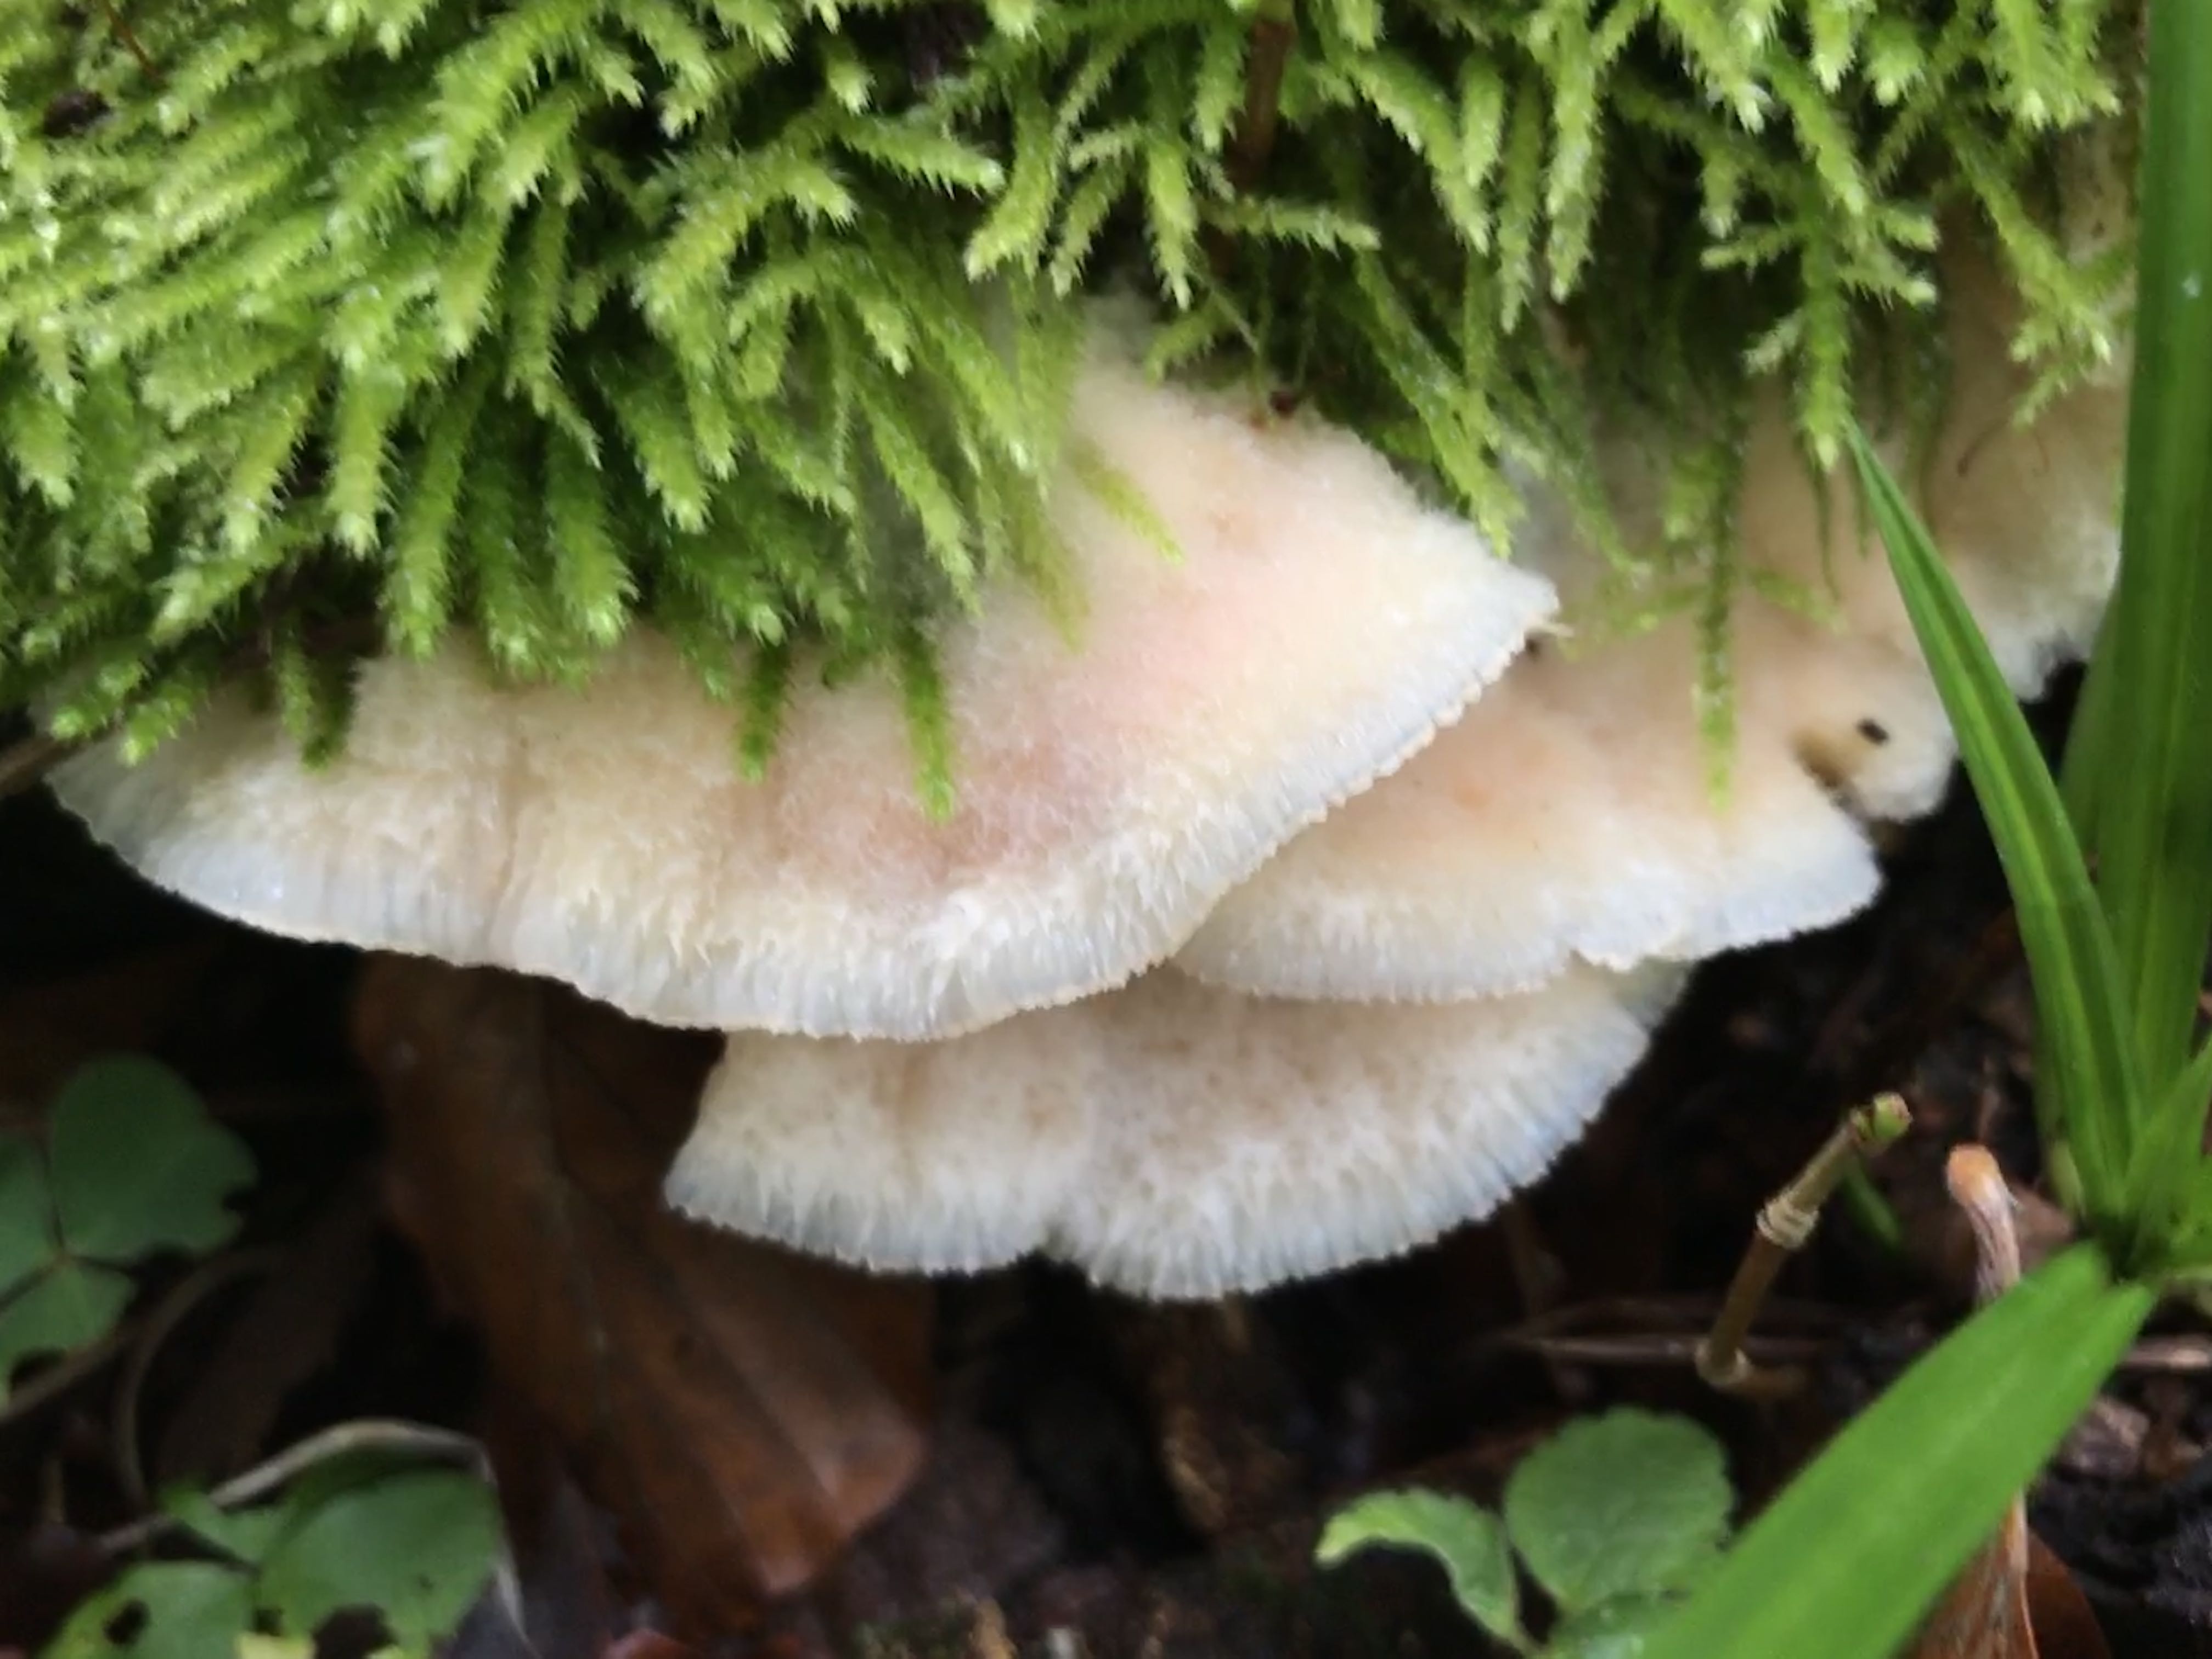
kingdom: Fungi
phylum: Basidiomycota
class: Agaricomycetes
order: Polyporales
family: Meruliaceae
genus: Phlebia
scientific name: Phlebia tremellosa
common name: bævrende åresvamp
